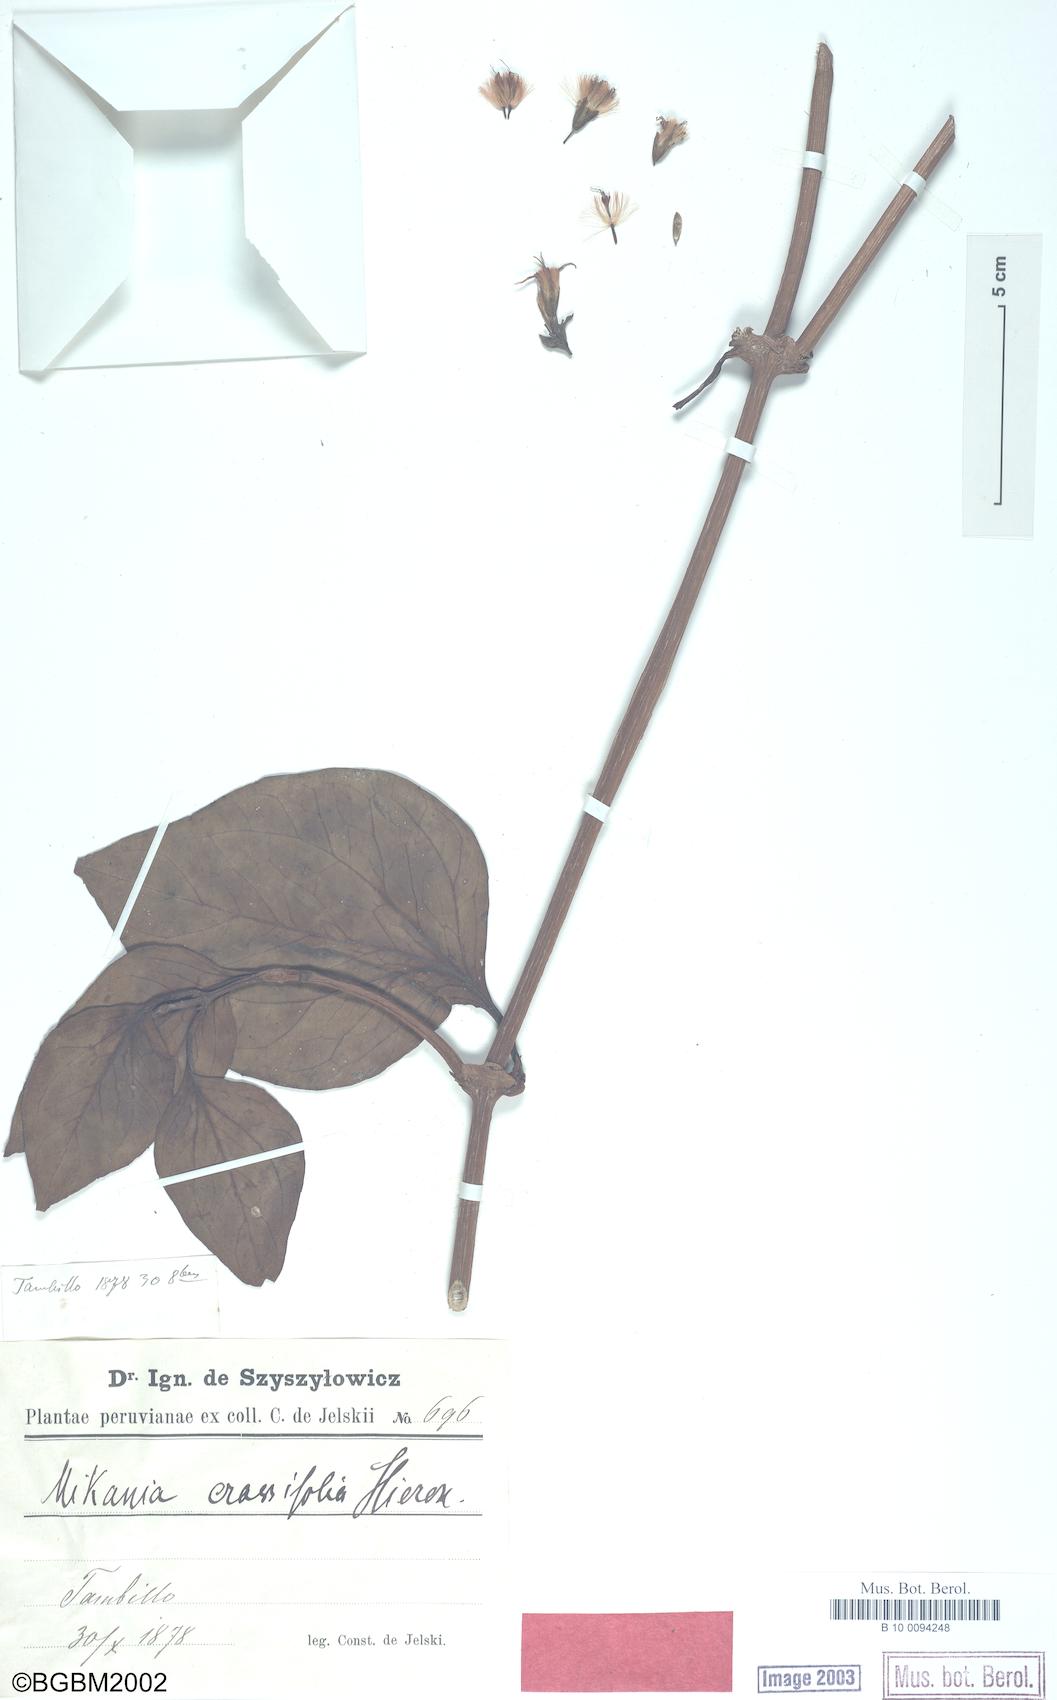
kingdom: Plantae
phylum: Tracheophyta
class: Magnoliopsida
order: Asterales
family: Asteraceae
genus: Mikania
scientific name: Mikania crassifolia
